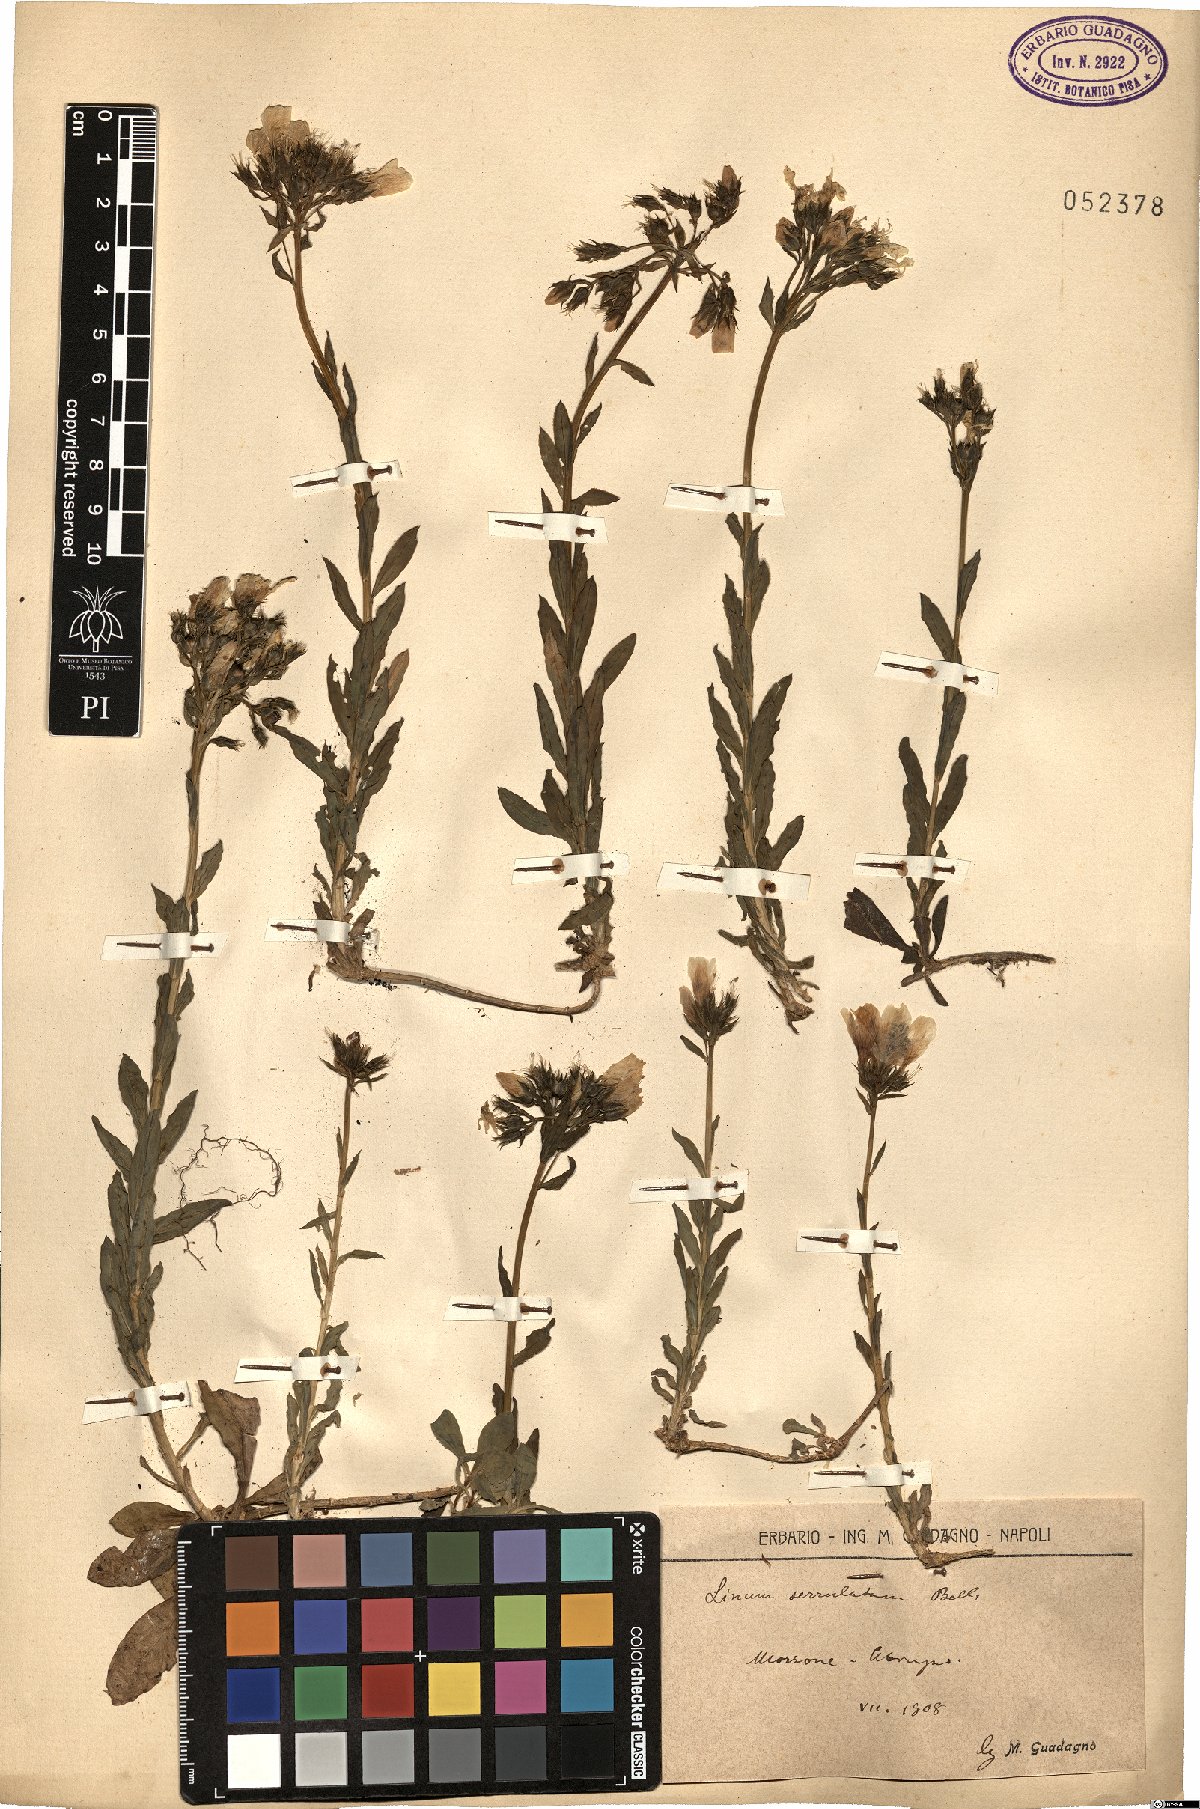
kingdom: Plantae
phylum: Tracheophyta
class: Magnoliopsida
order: Malpighiales
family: Linaceae
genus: Linum
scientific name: Linum capitatum
